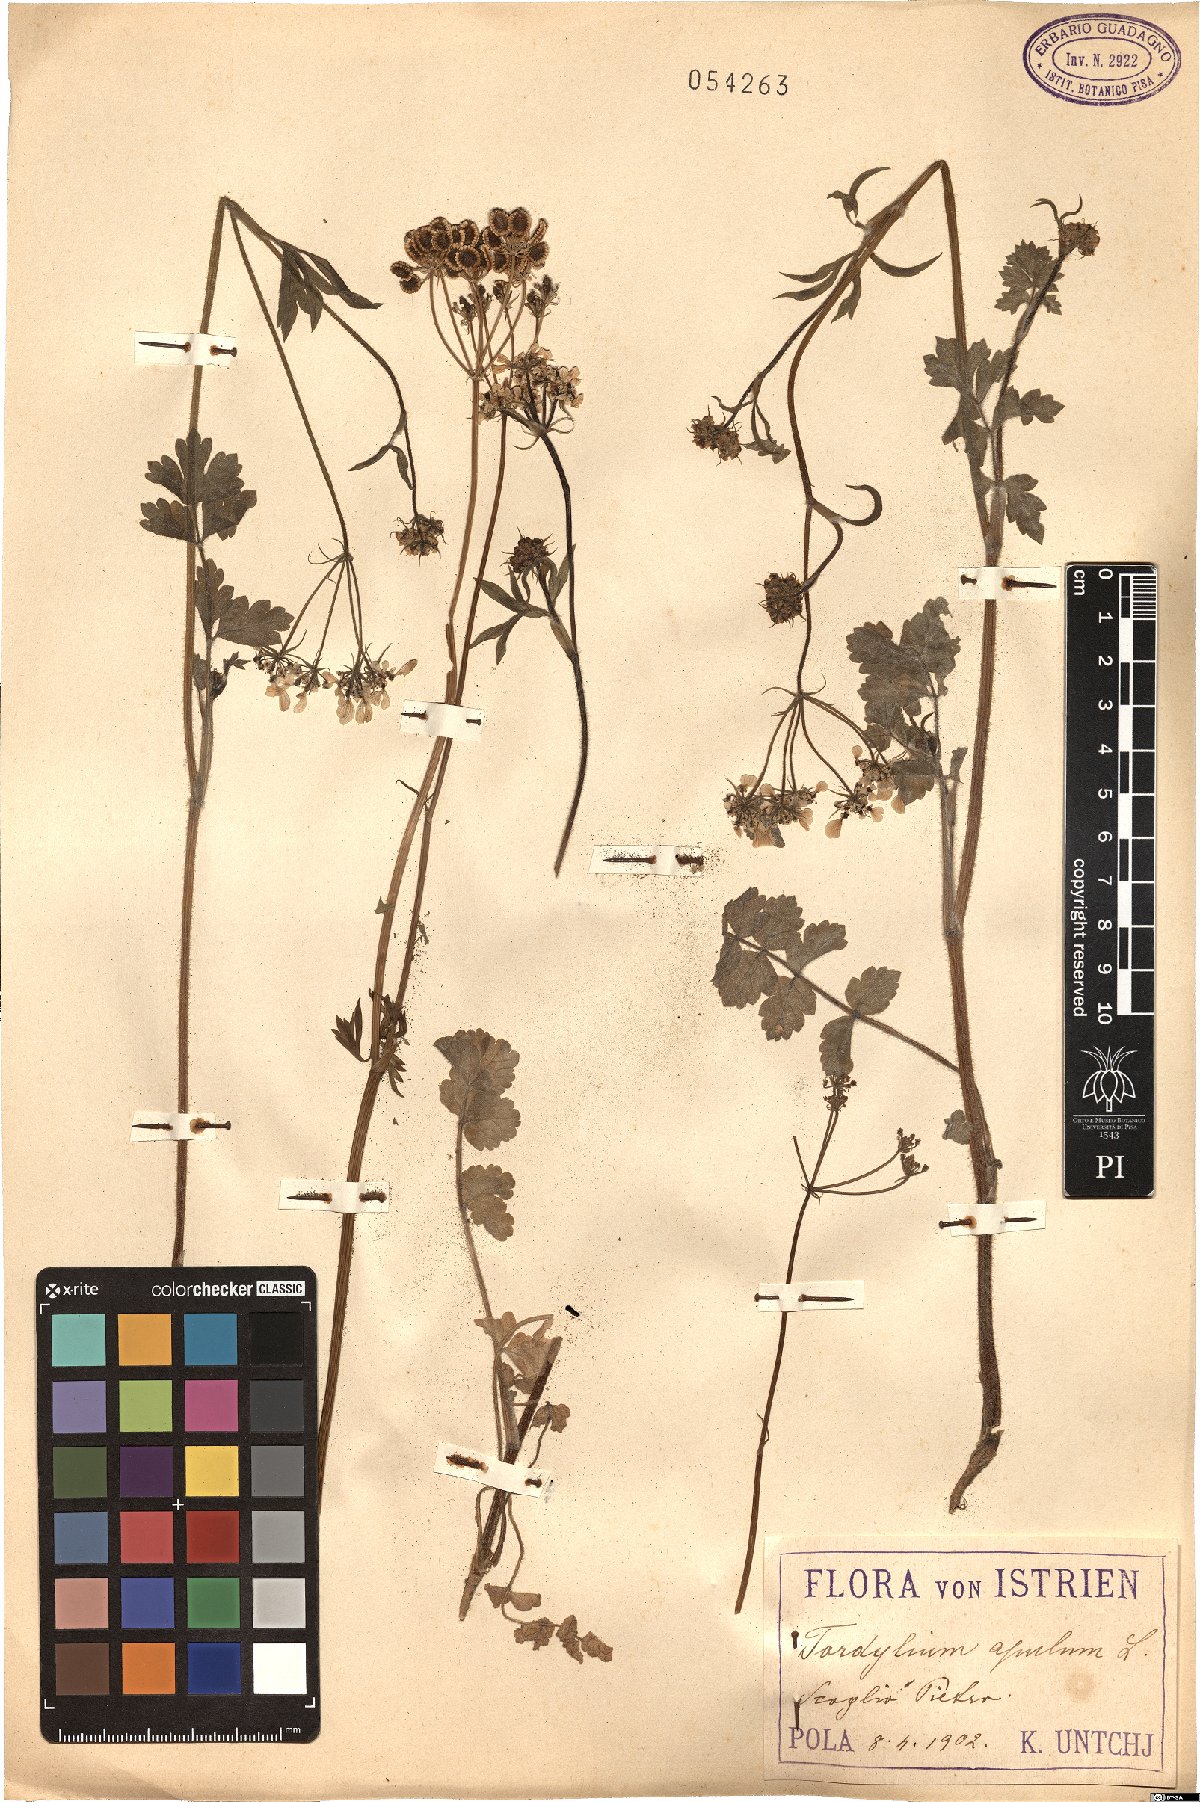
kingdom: Plantae
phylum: Tracheophyta
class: Magnoliopsida
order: Apiales
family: Apiaceae
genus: Tordylium
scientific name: Tordylium apulum
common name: Mediterranean hartwort
